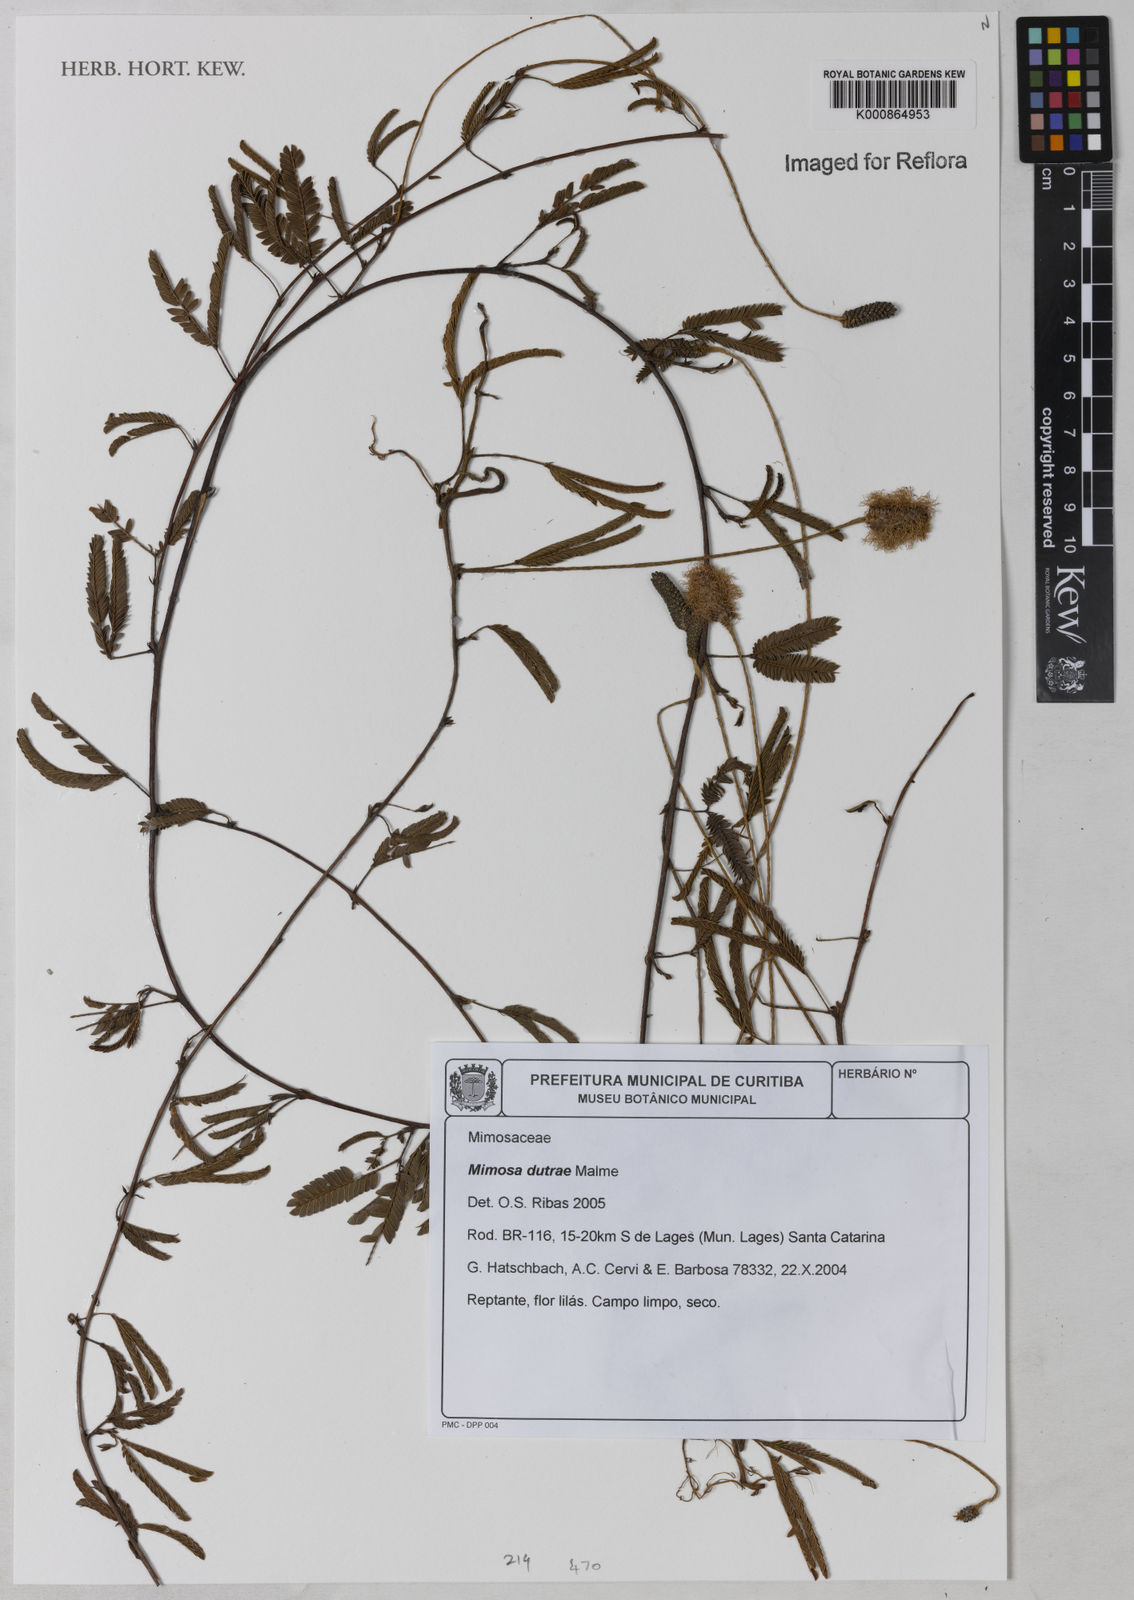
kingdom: Plantae
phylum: Tracheophyta
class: Magnoliopsida
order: Fabales
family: Fabaceae
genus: Mimosa
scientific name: Mimosa dutrae
